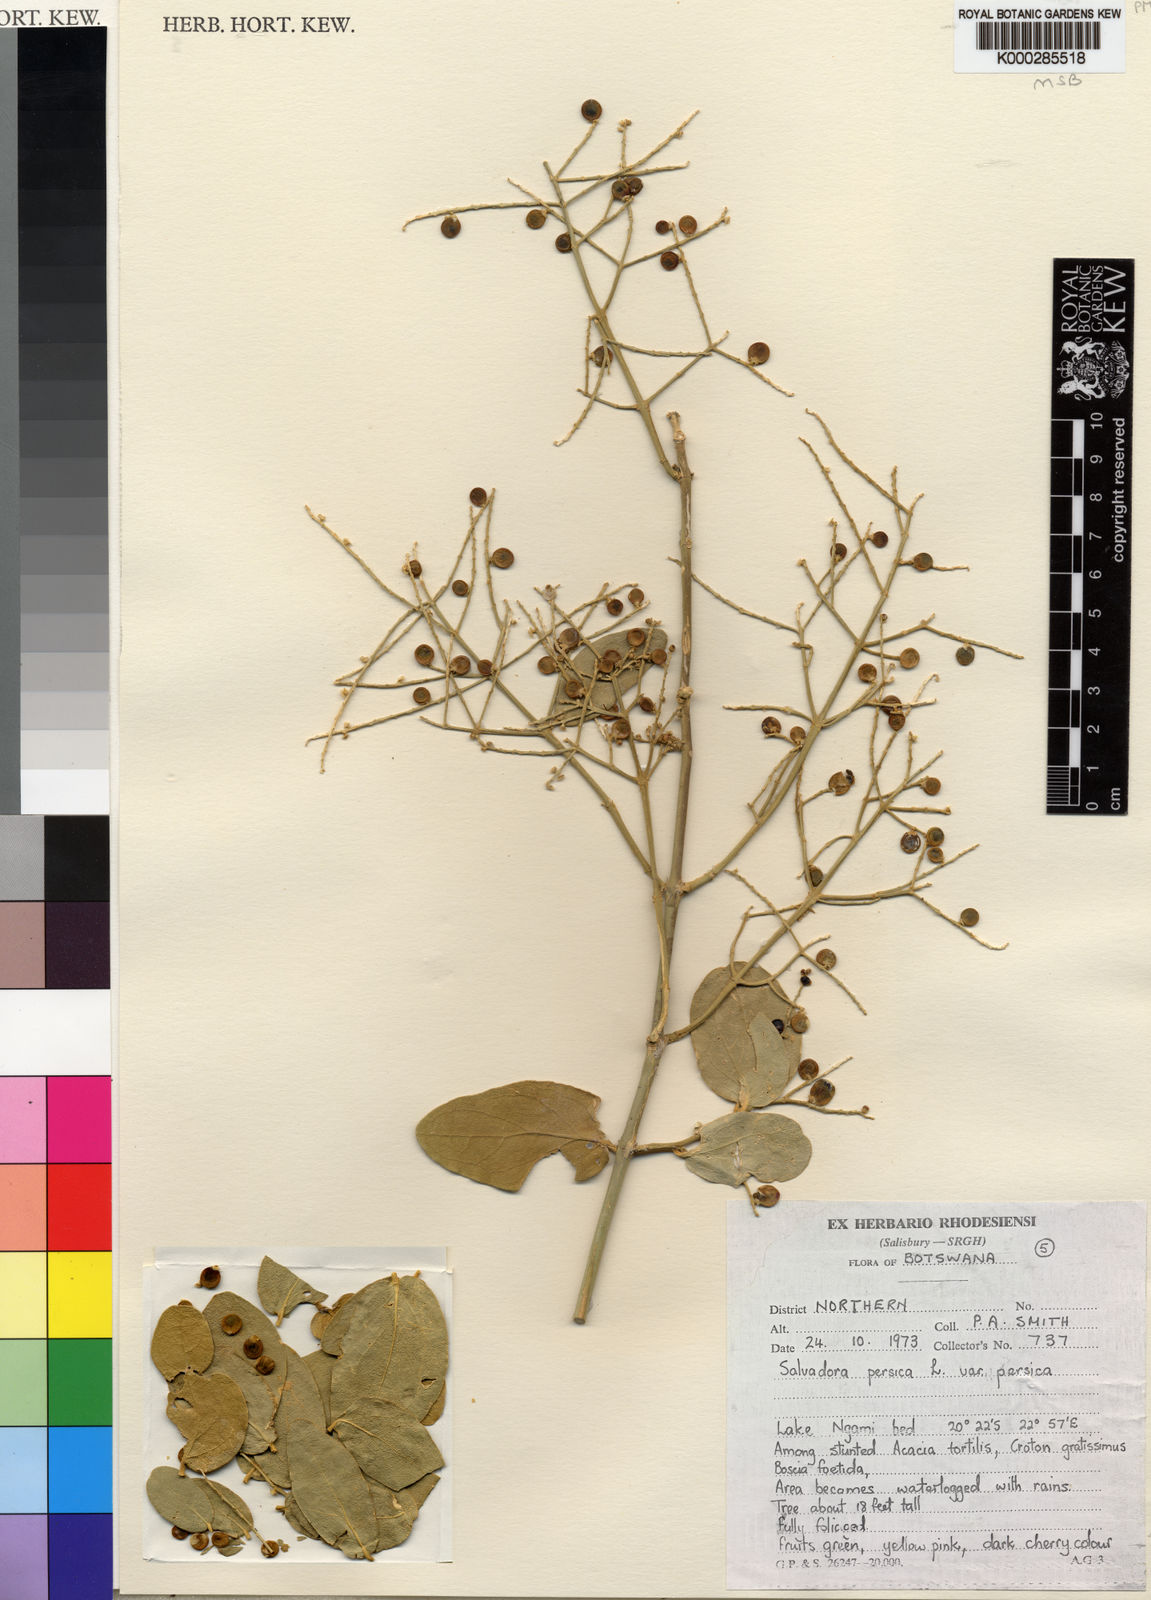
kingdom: Plantae
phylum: Tracheophyta
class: Magnoliopsida
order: Brassicales
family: Salvadoraceae
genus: Salvadora
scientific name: Salvadora persica
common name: Toothbrushtree
